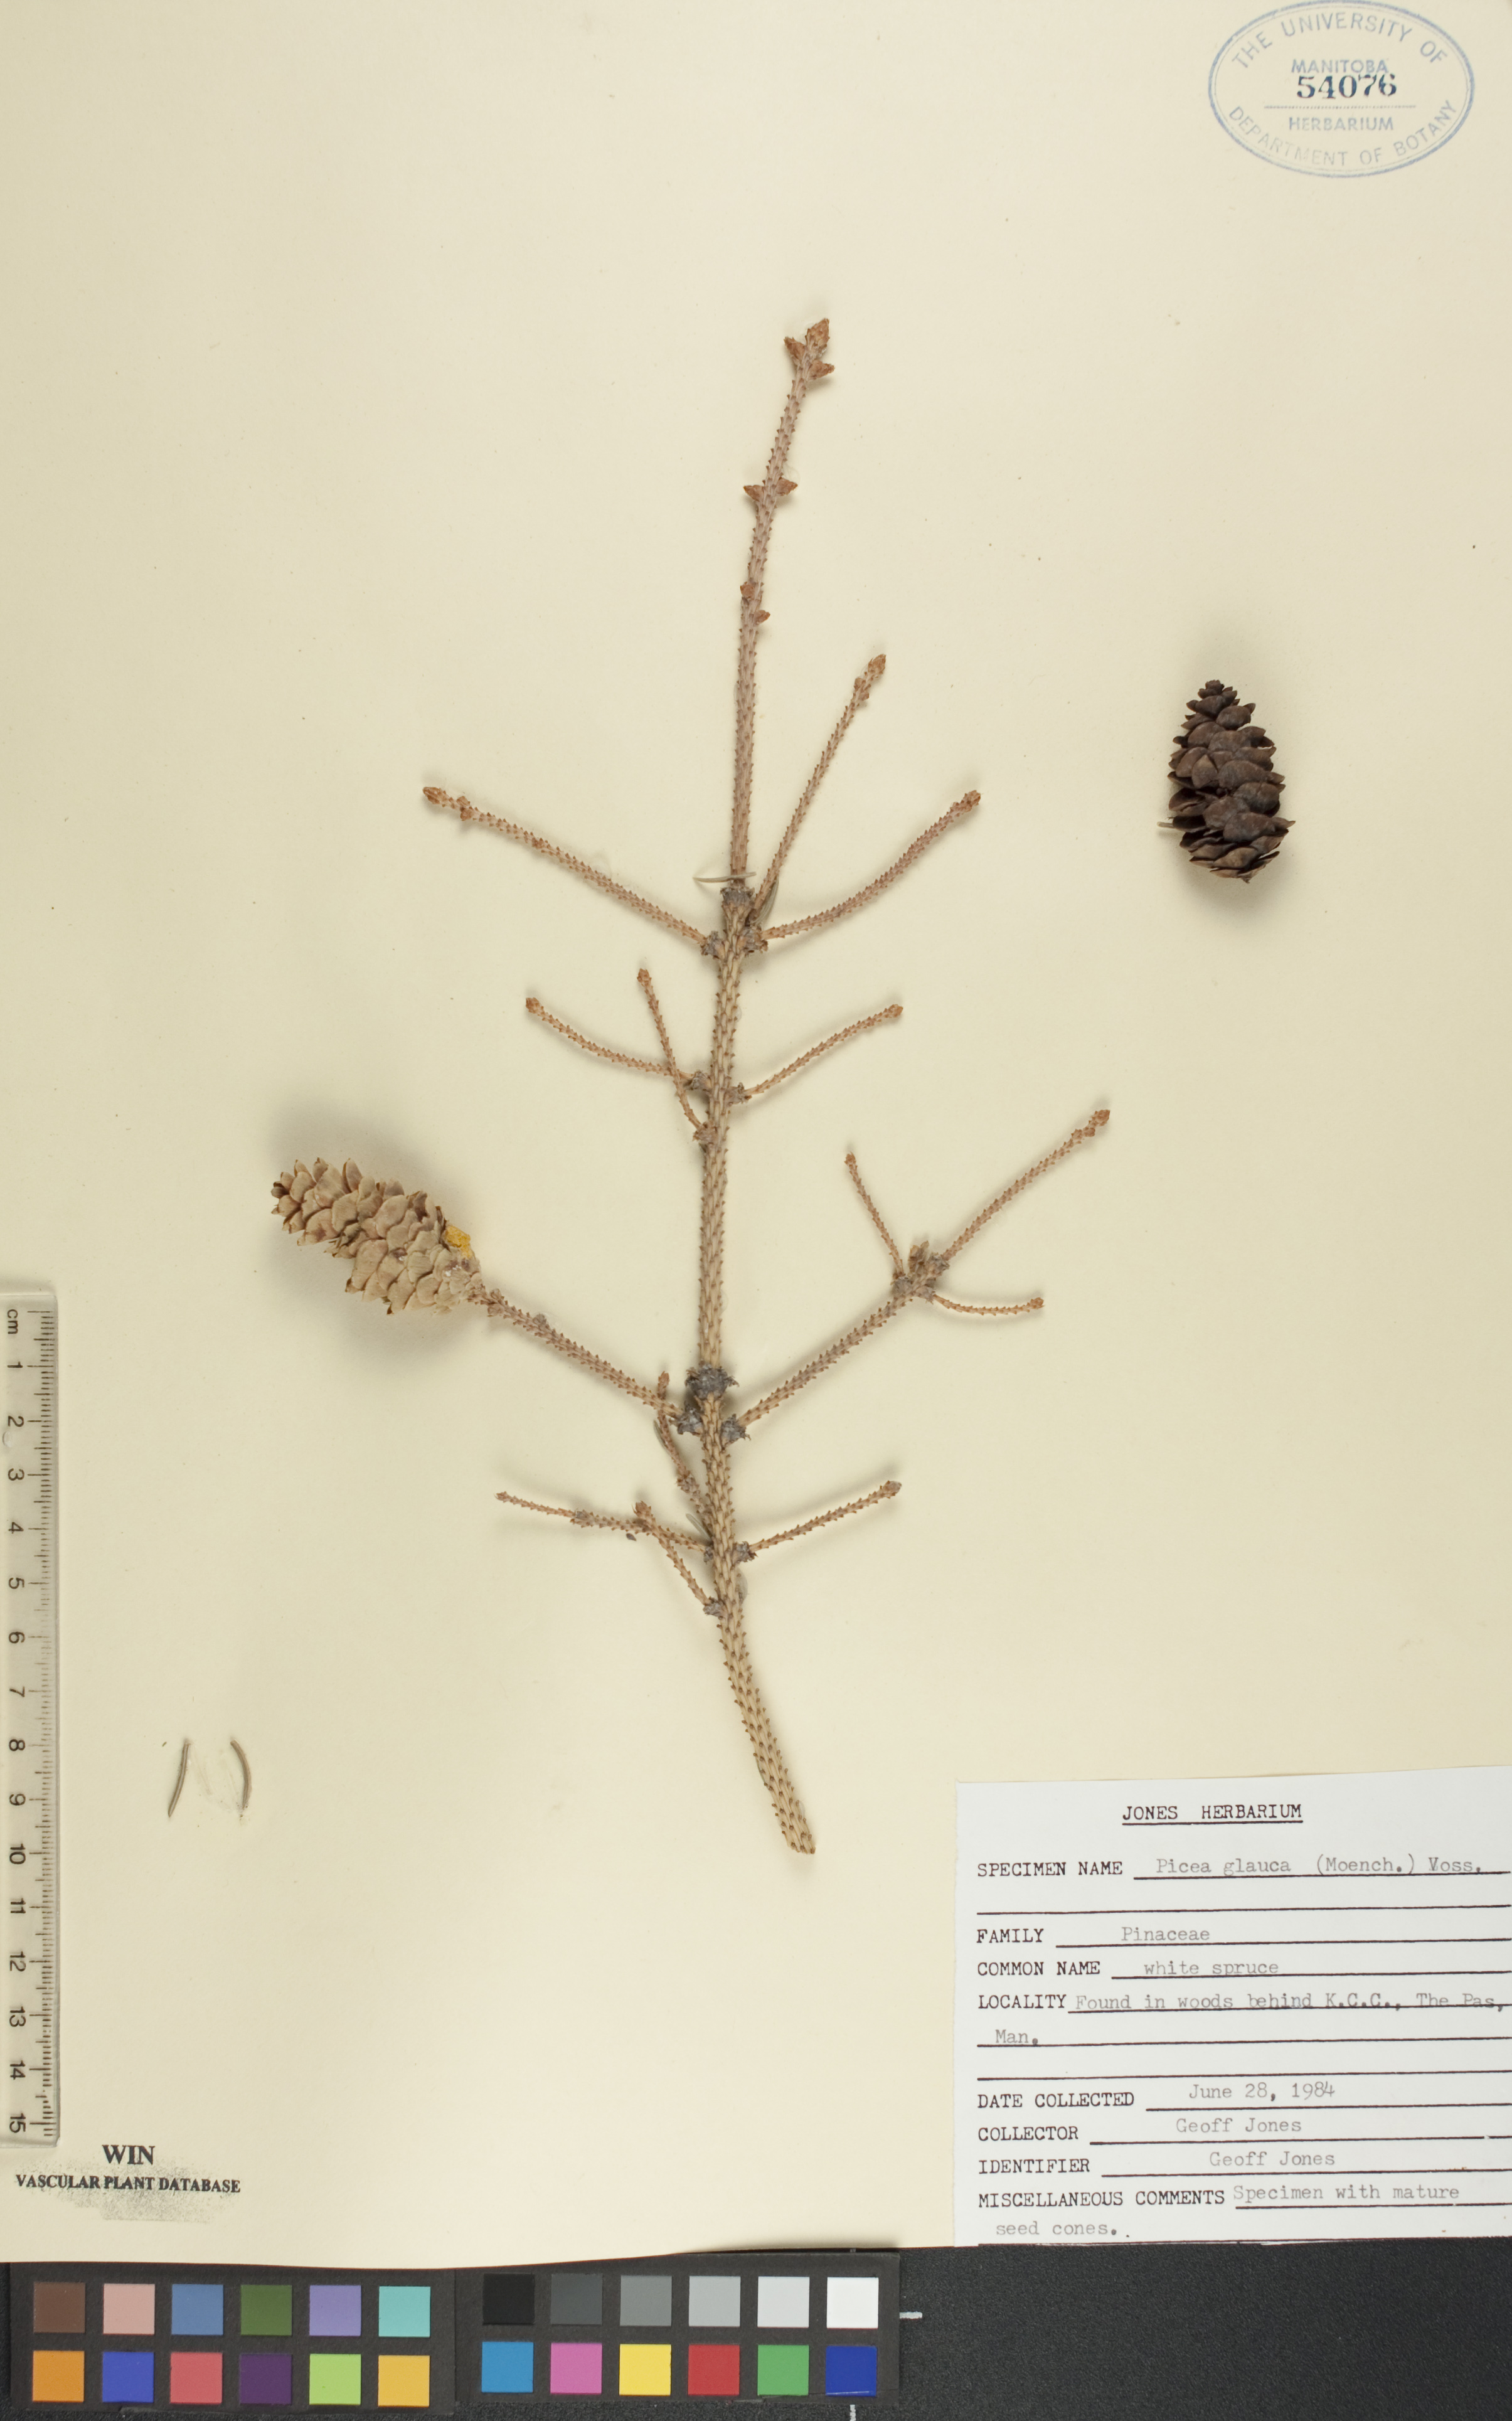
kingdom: Plantae
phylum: Tracheophyta
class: Pinopsida
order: Pinales
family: Pinaceae
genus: Picea
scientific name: Picea glauca
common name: White spruce
